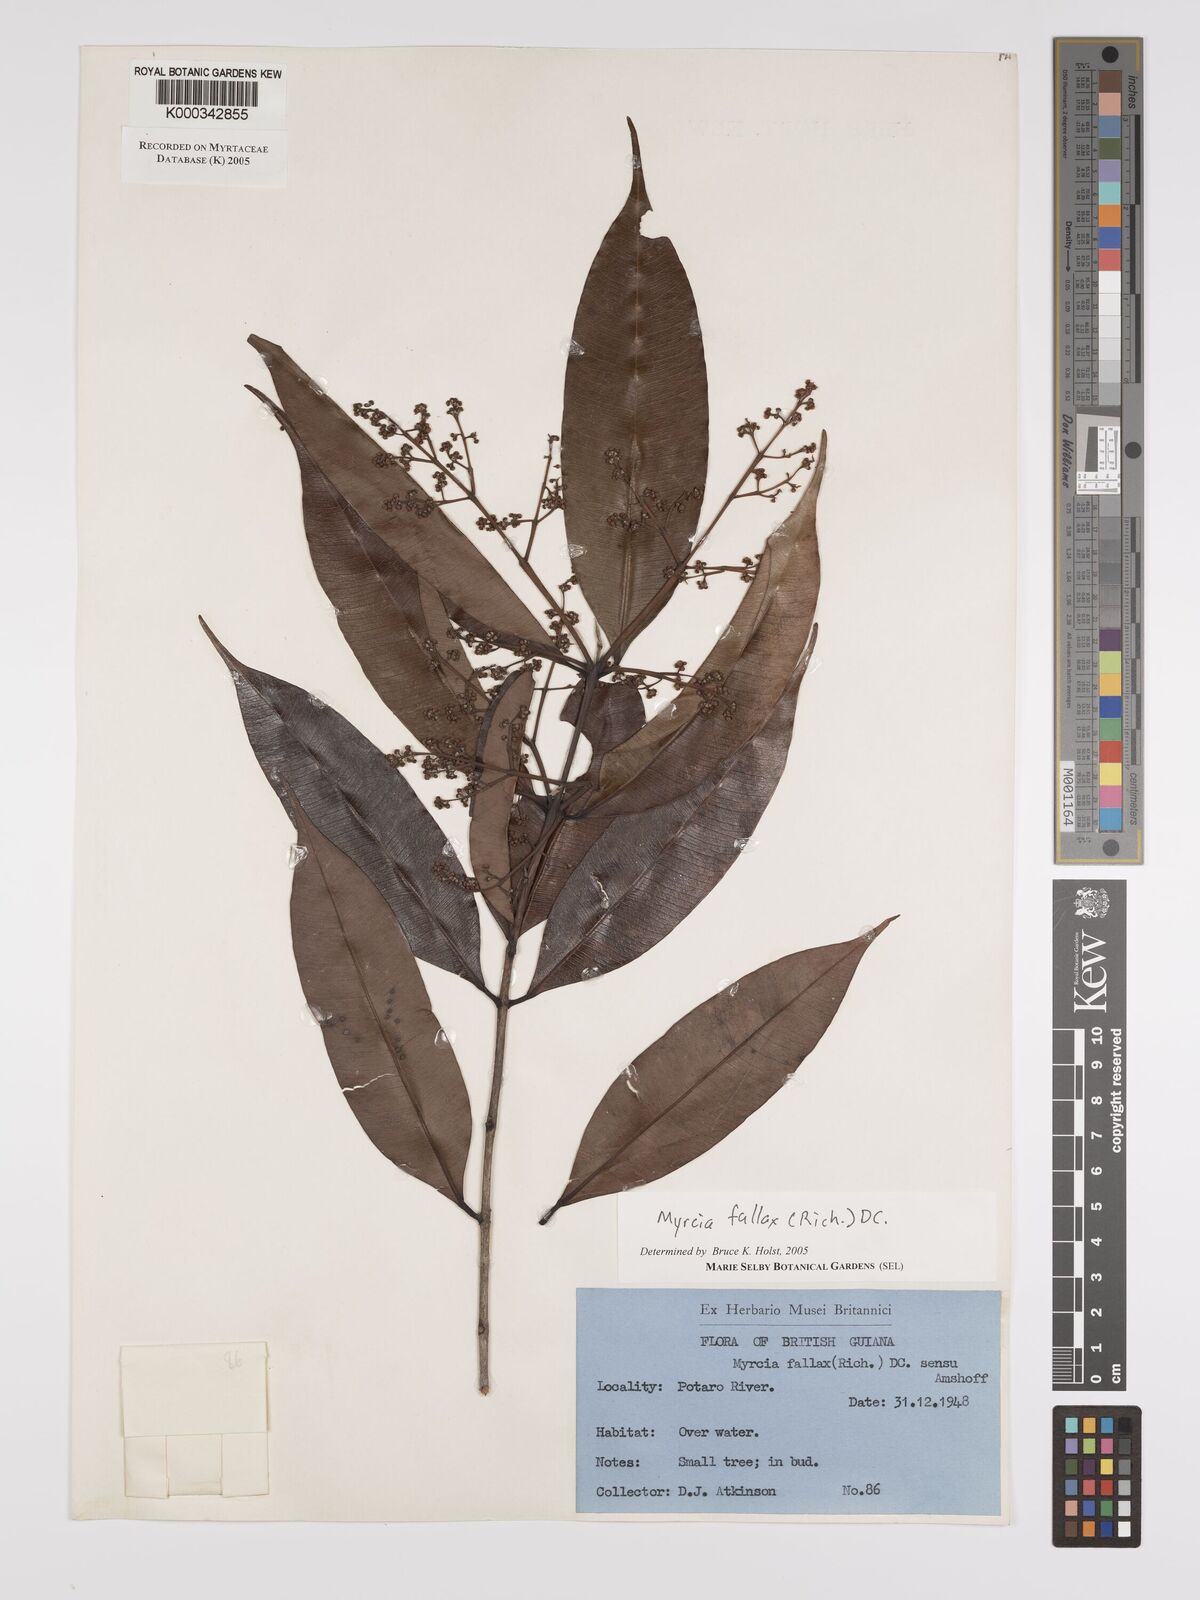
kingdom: Plantae
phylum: Tracheophyta
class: Magnoliopsida
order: Myrtales
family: Myrtaceae
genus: Myrcia
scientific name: Myrcia splendens
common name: Surinam cherry
